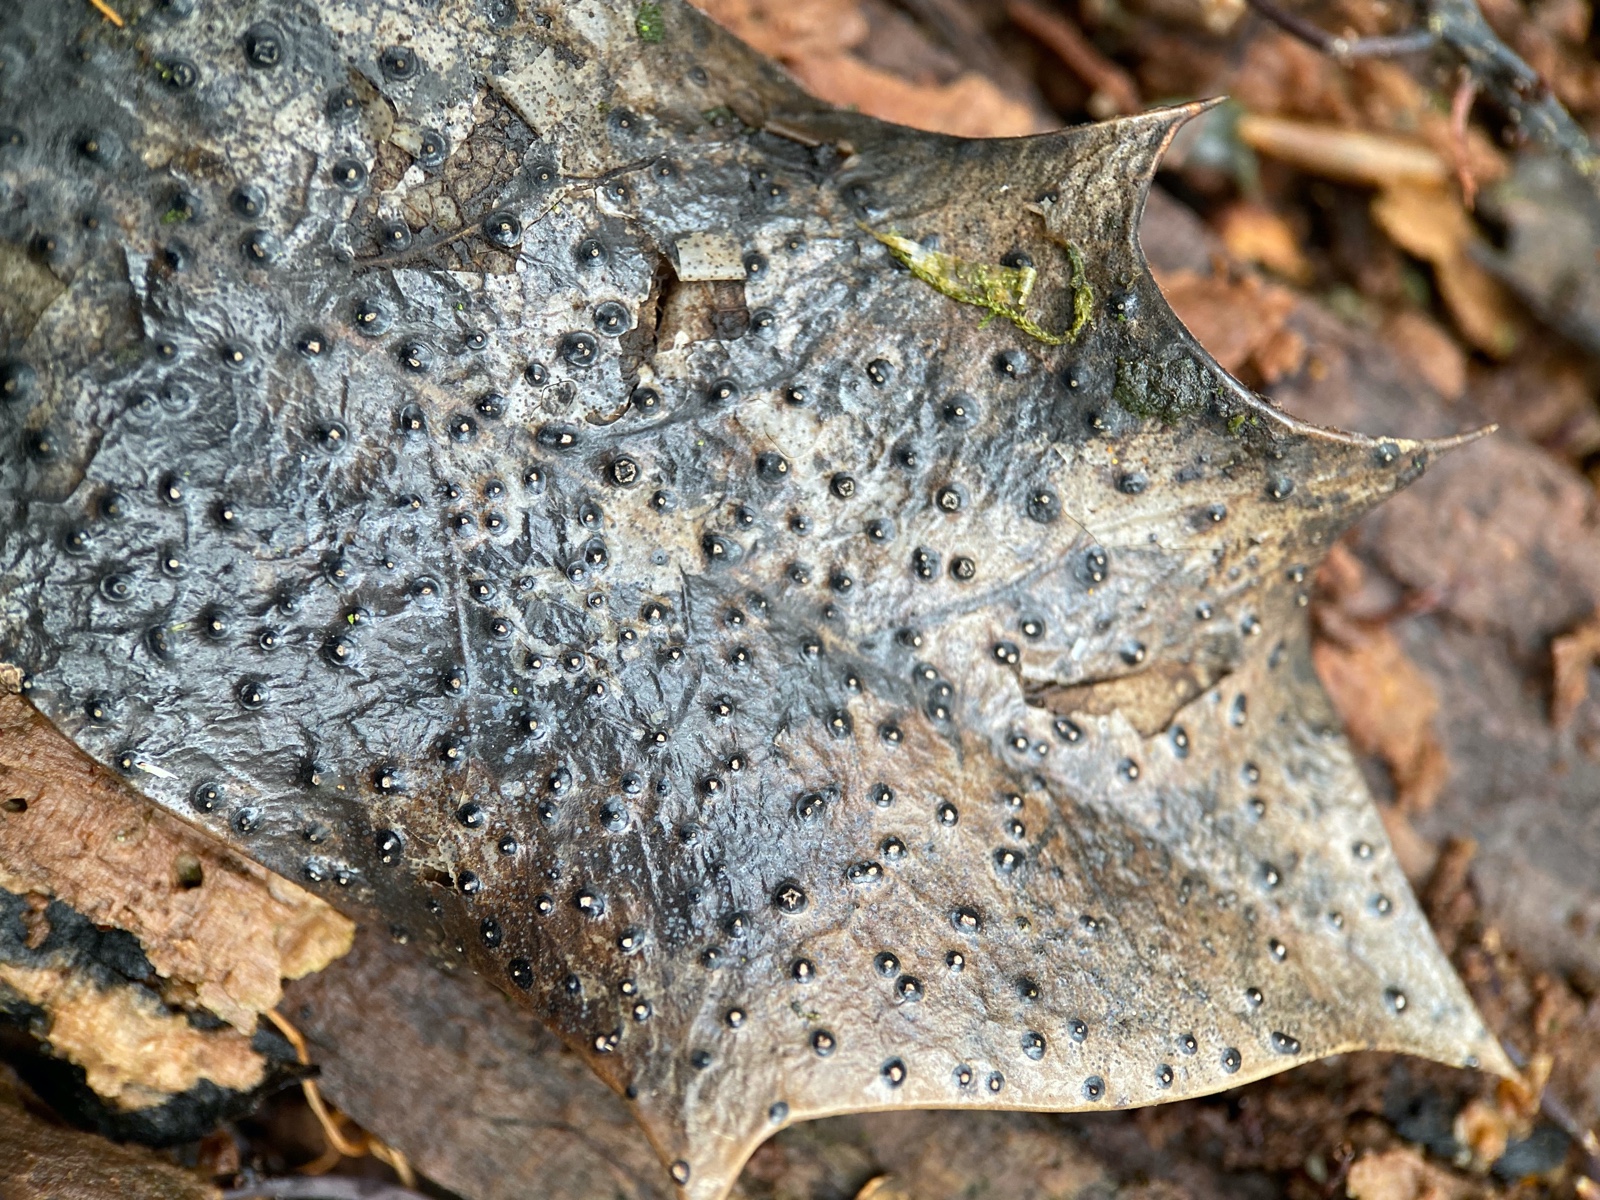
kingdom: Fungi
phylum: Ascomycota
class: Leotiomycetes
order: Phacidiales
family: Phacidiaceae
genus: Phacidium
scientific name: Phacidium lauri
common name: kristtorn-tandskive
